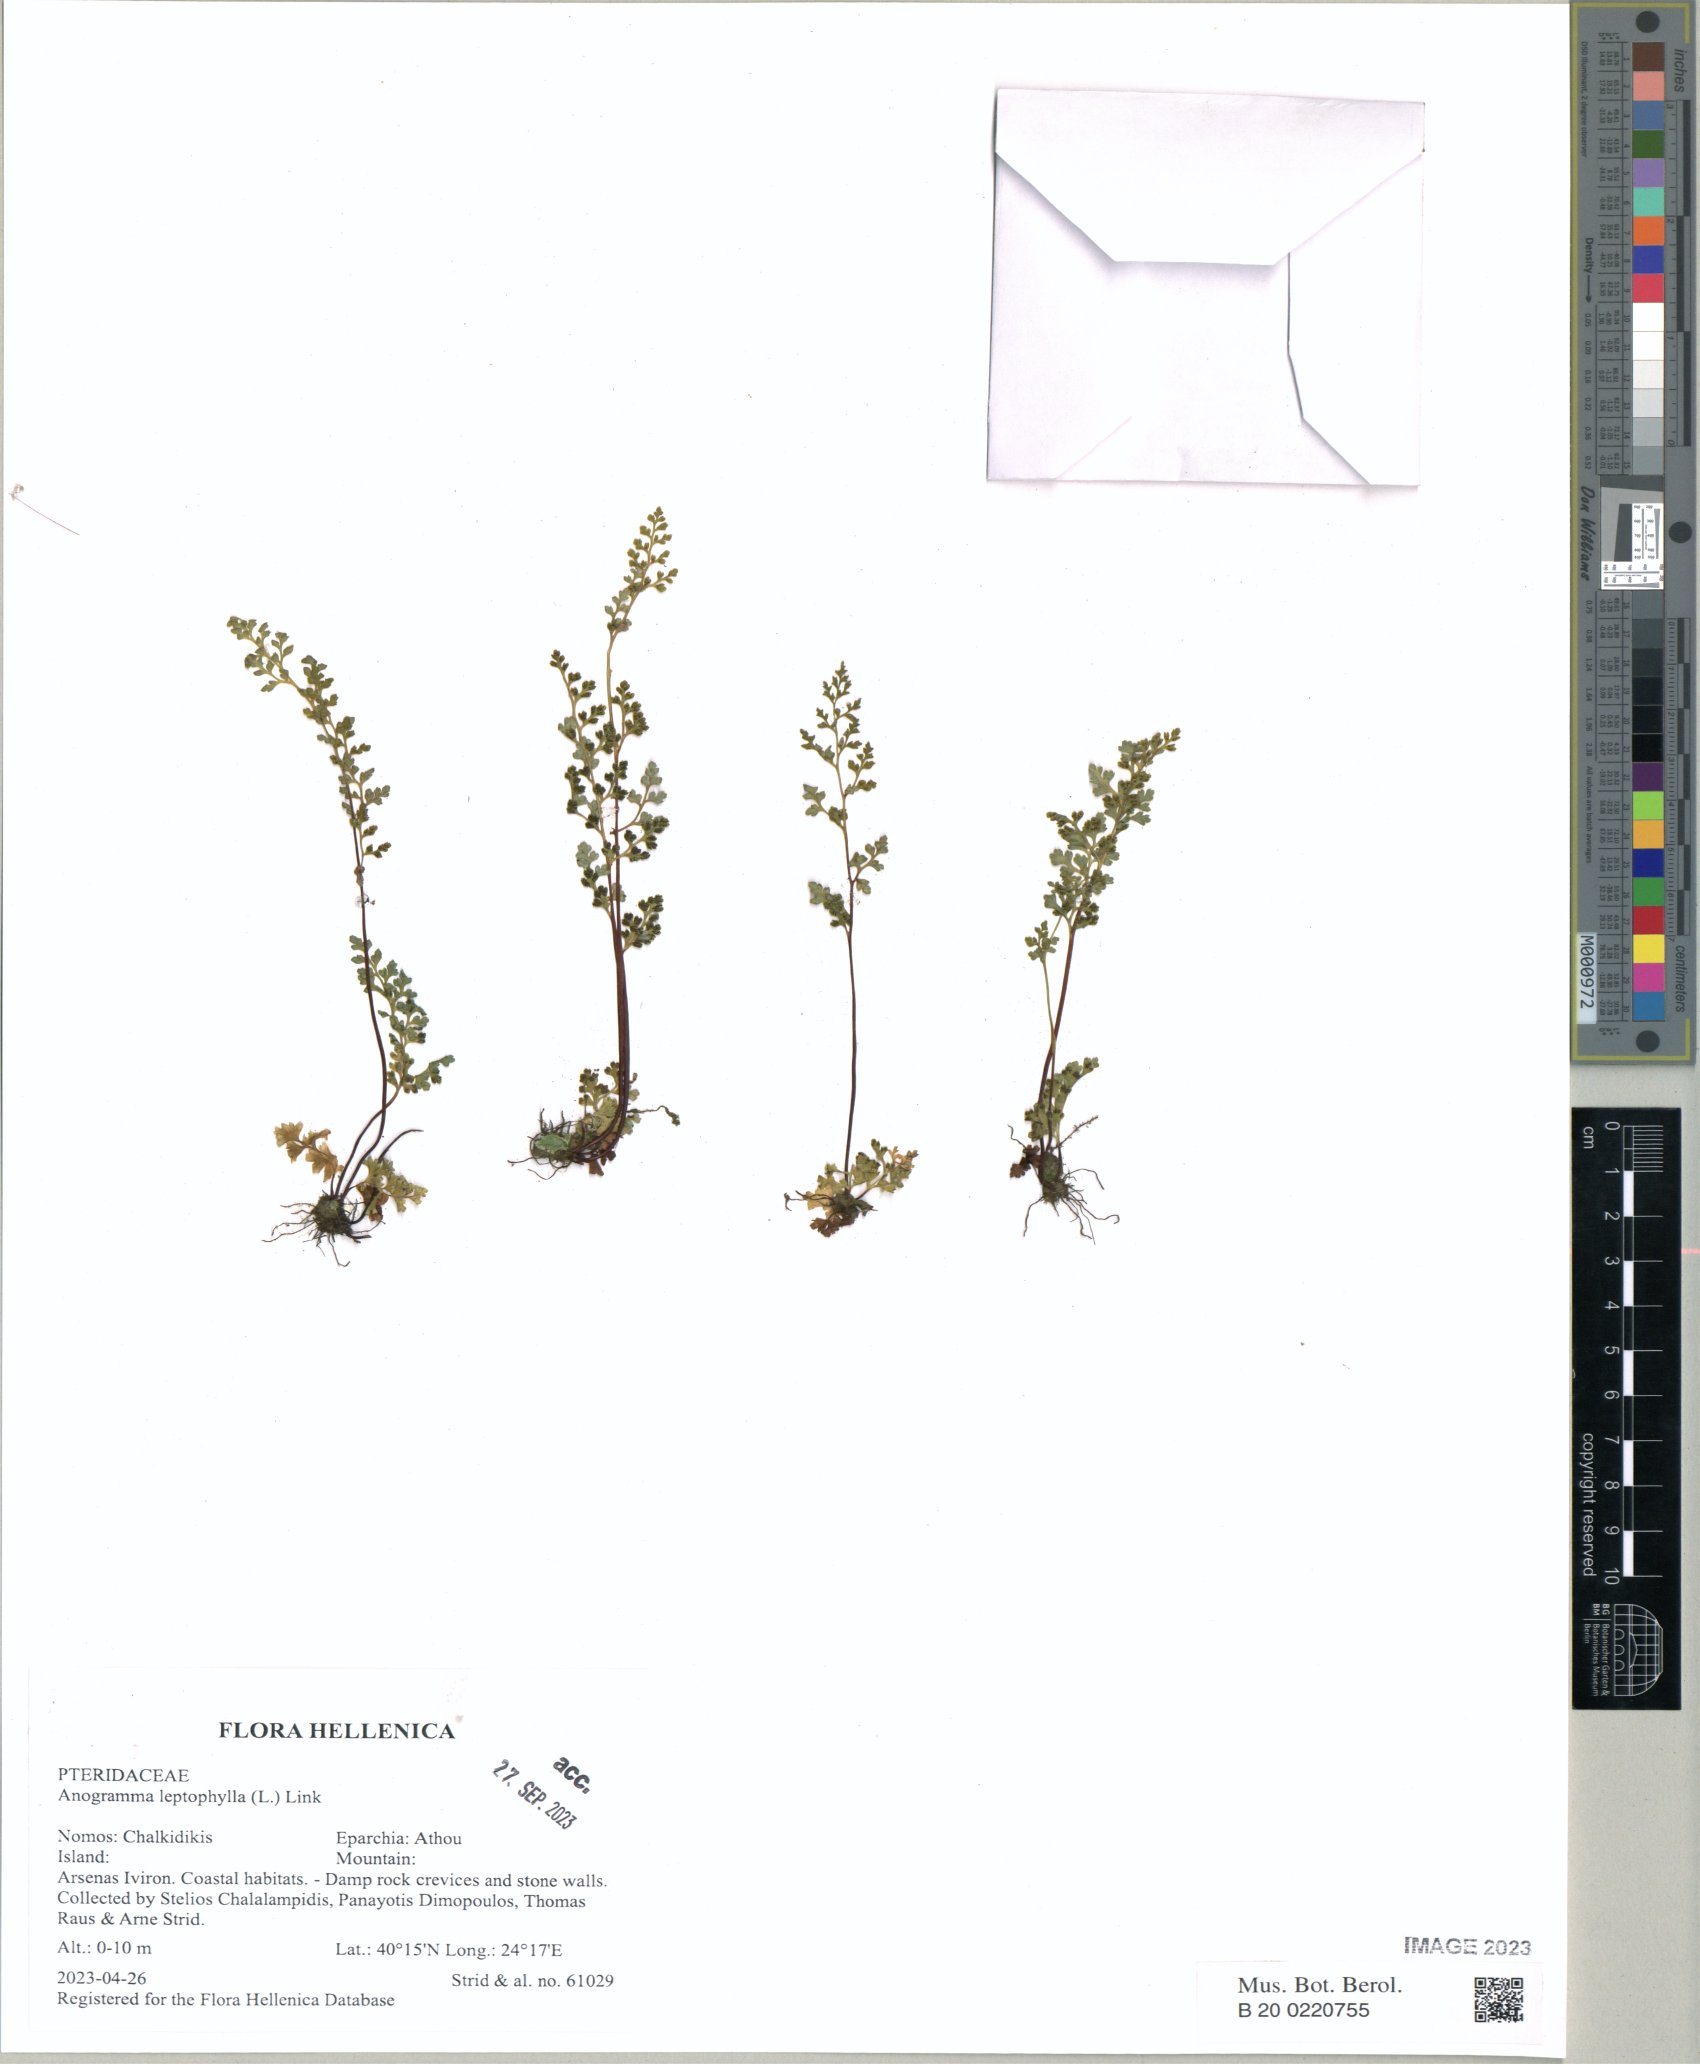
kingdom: Plantae
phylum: Tracheophyta
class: Polypodiopsida
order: Polypodiales
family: Pteridaceae
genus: Anogramma
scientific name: Anogramma leptophylla
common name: Jersey fern
